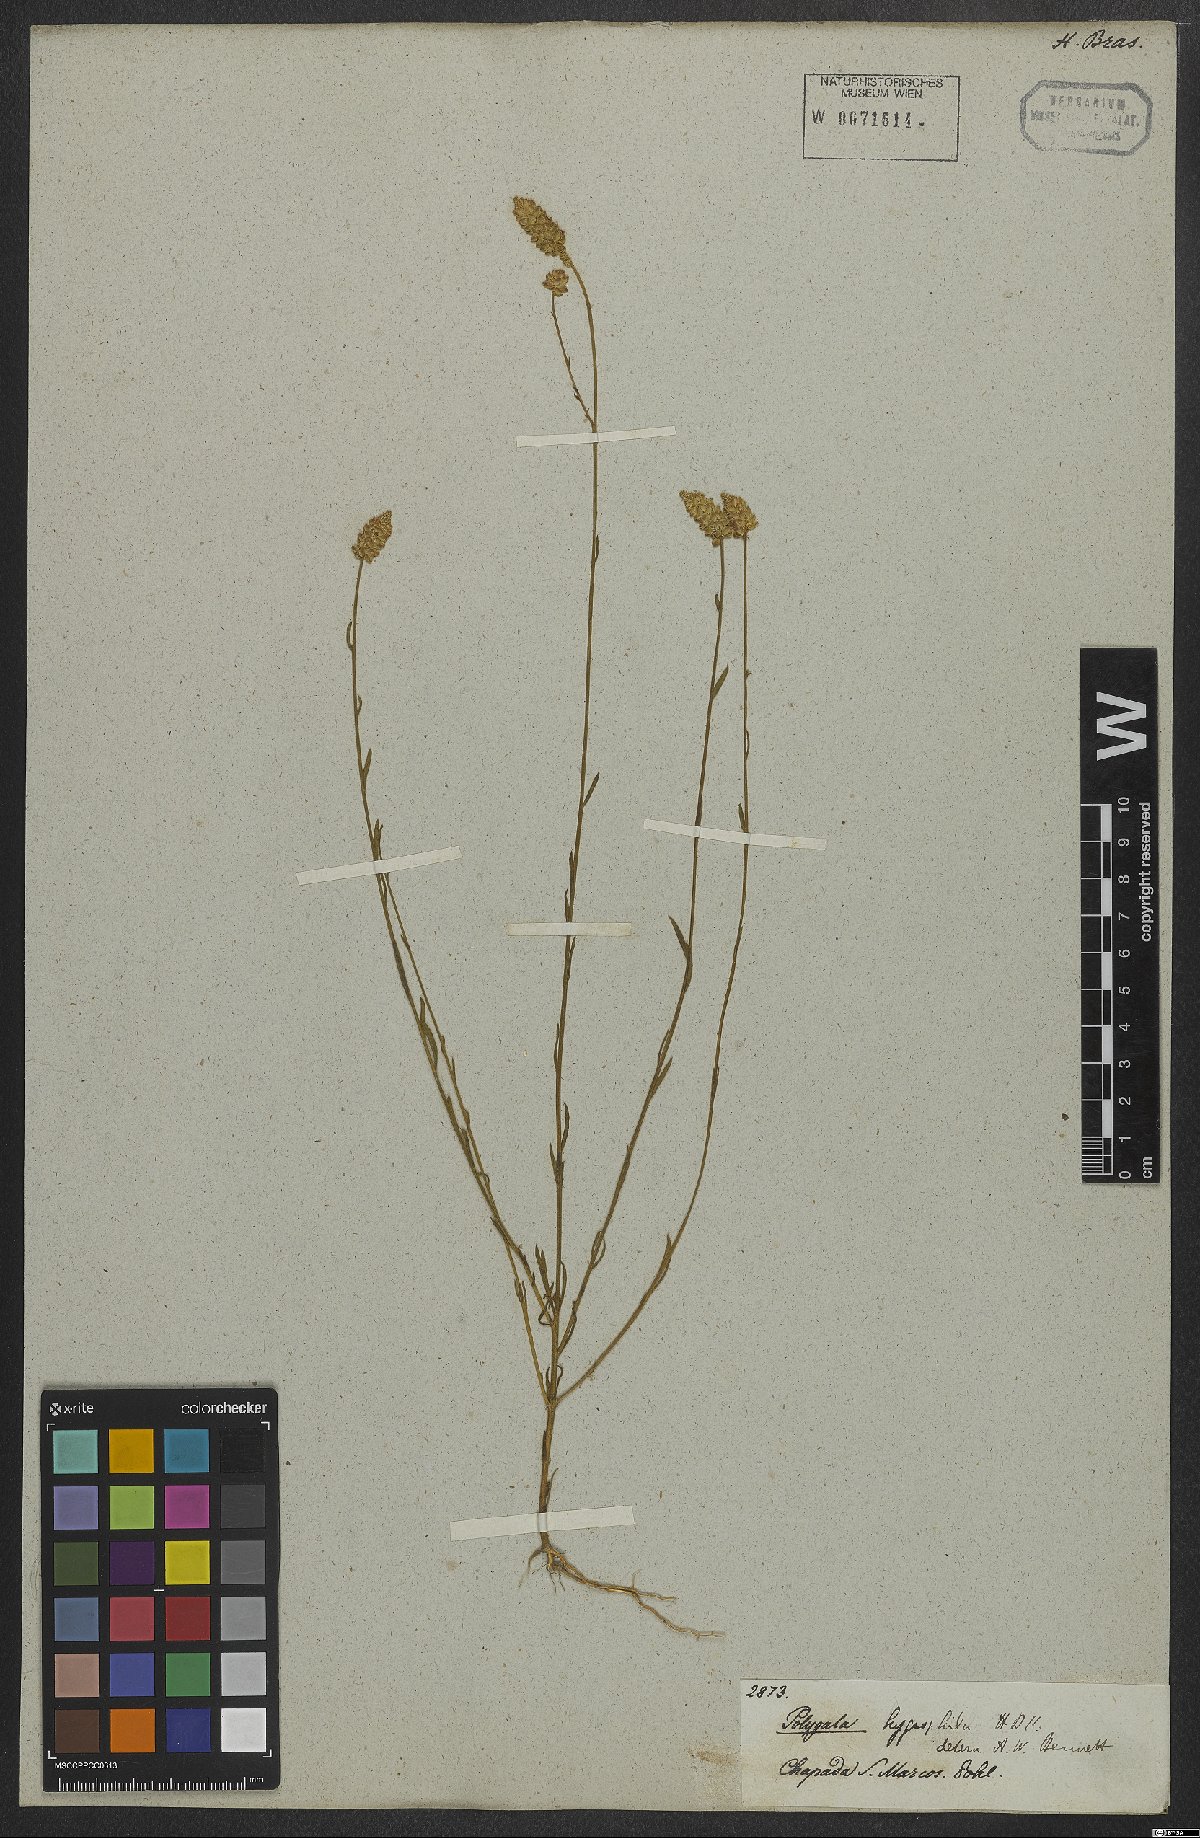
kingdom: Plantae
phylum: Tracheophyta
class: Magnoliopsida
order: Fabales
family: Polygalaceae
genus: Polygala
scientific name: Polygala hygrophila
